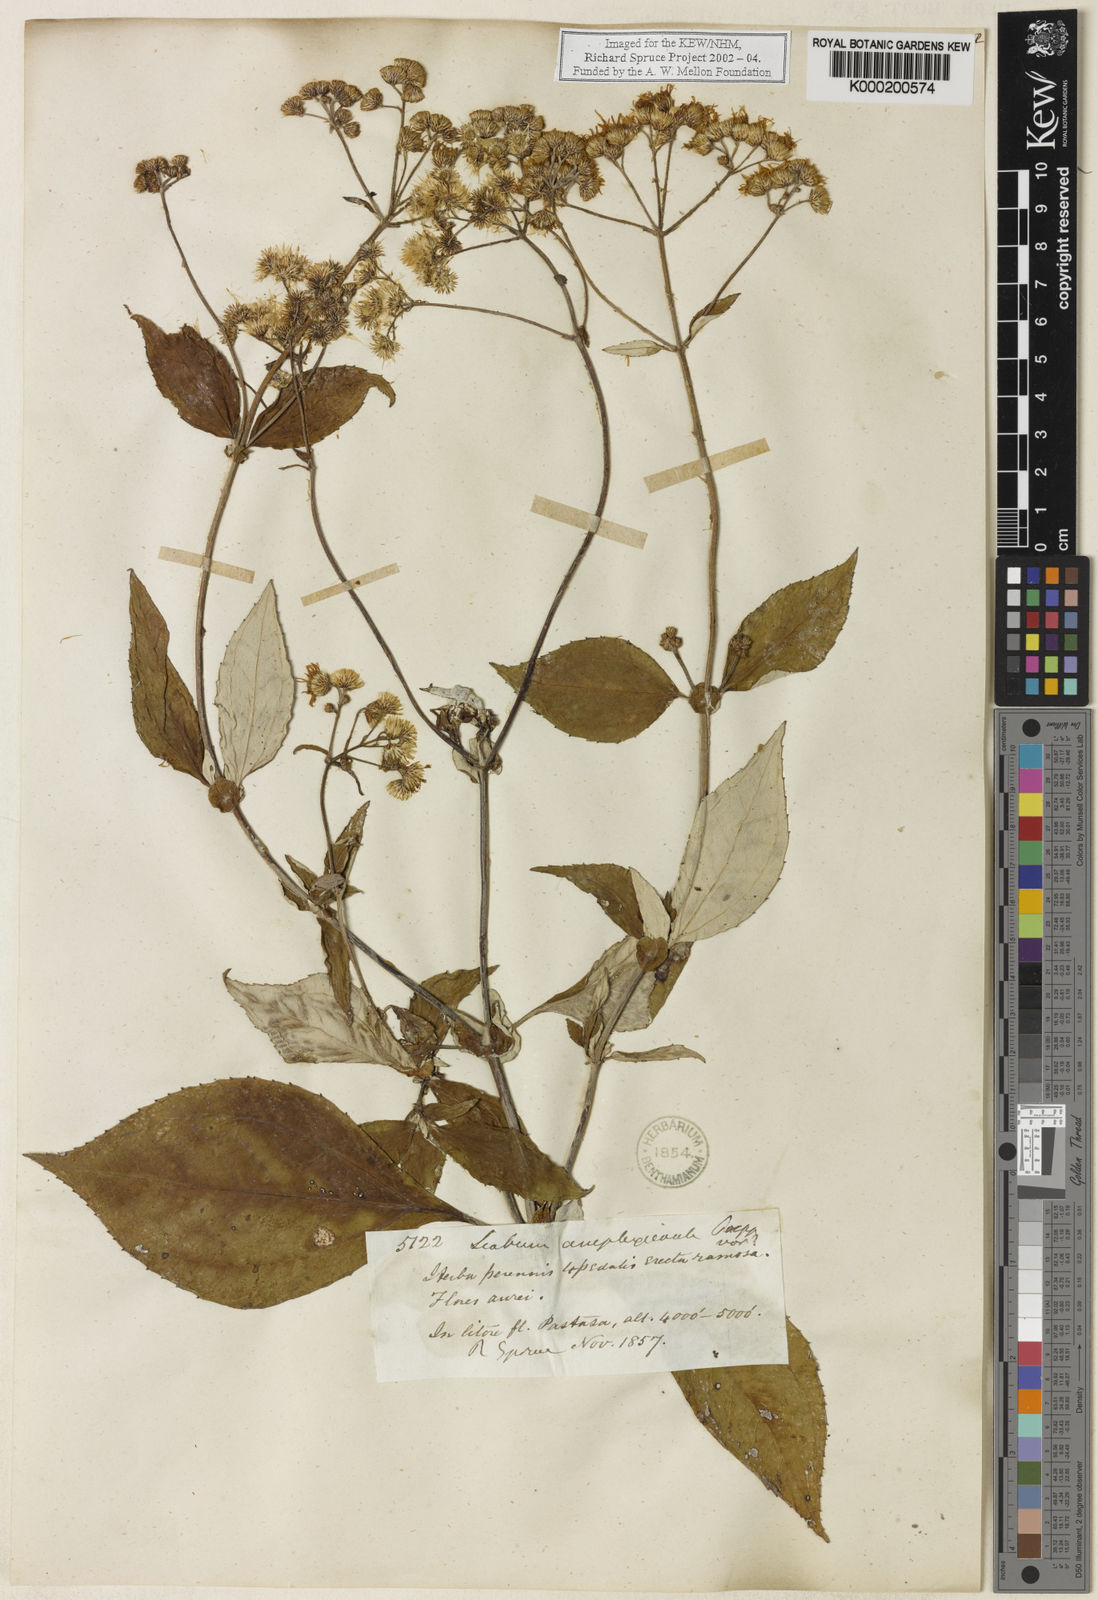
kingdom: Plantae
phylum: Tracheophyta
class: Magnoliopsida
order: Asterales
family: Asteraceae
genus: Liabum
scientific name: Liabum
